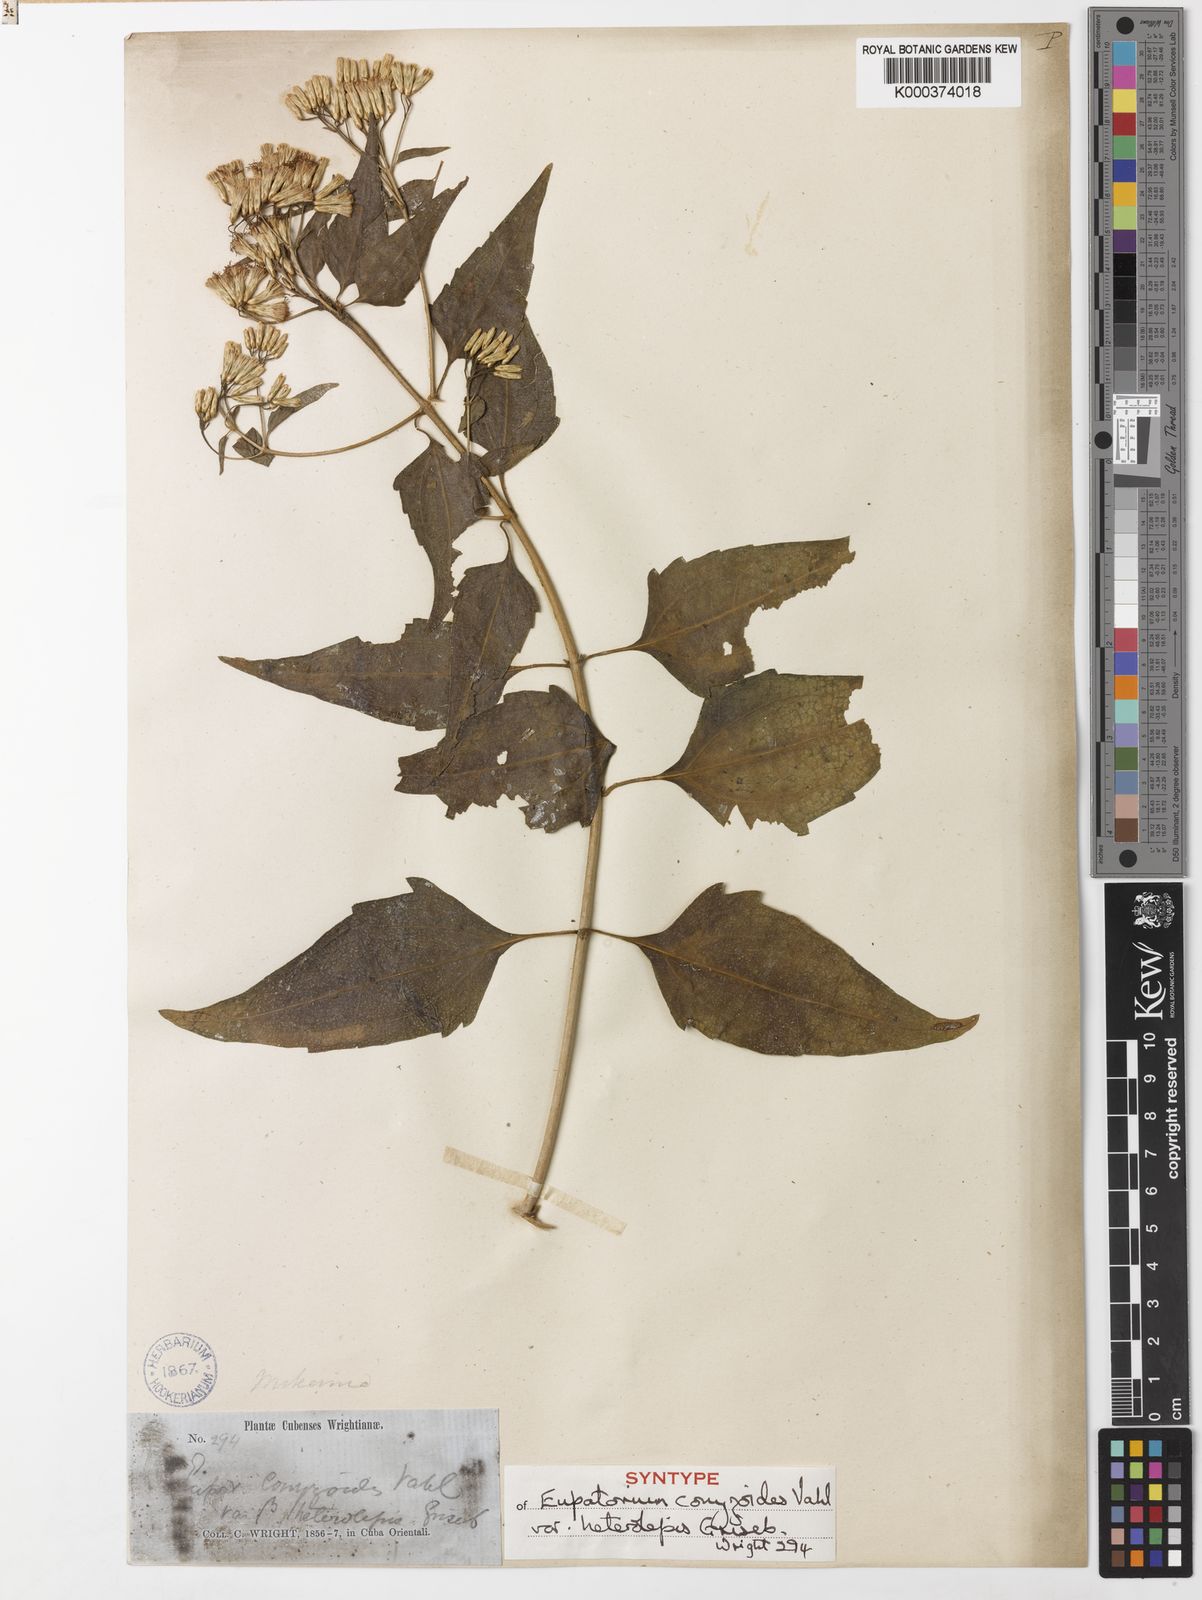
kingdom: Plantae
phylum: Tracheophyta
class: Magnoliopsida
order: Asterales
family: Asteraceae
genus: Chromolaena
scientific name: Chromolaena odorata
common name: Siamweed
